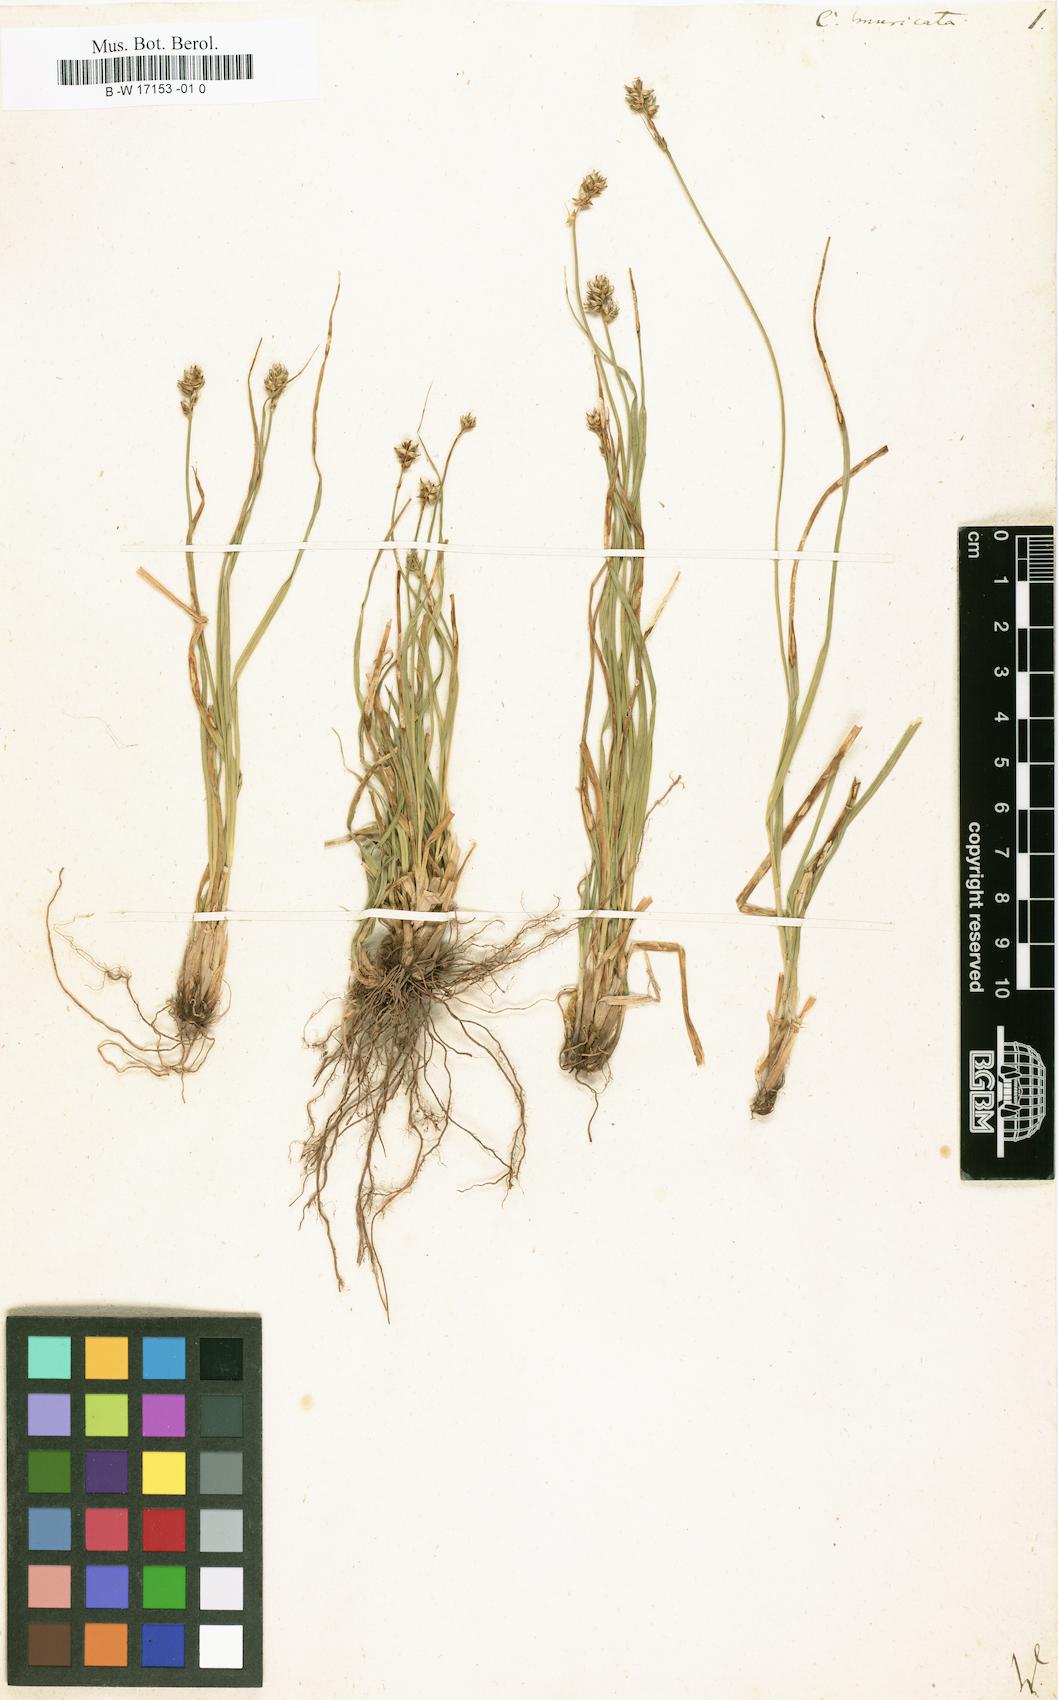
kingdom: Plantae
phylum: Tracheophyta
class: Liliopsida
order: Poales
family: Cyperaceae
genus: Carex
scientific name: Carex muricata
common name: Rough sedge
